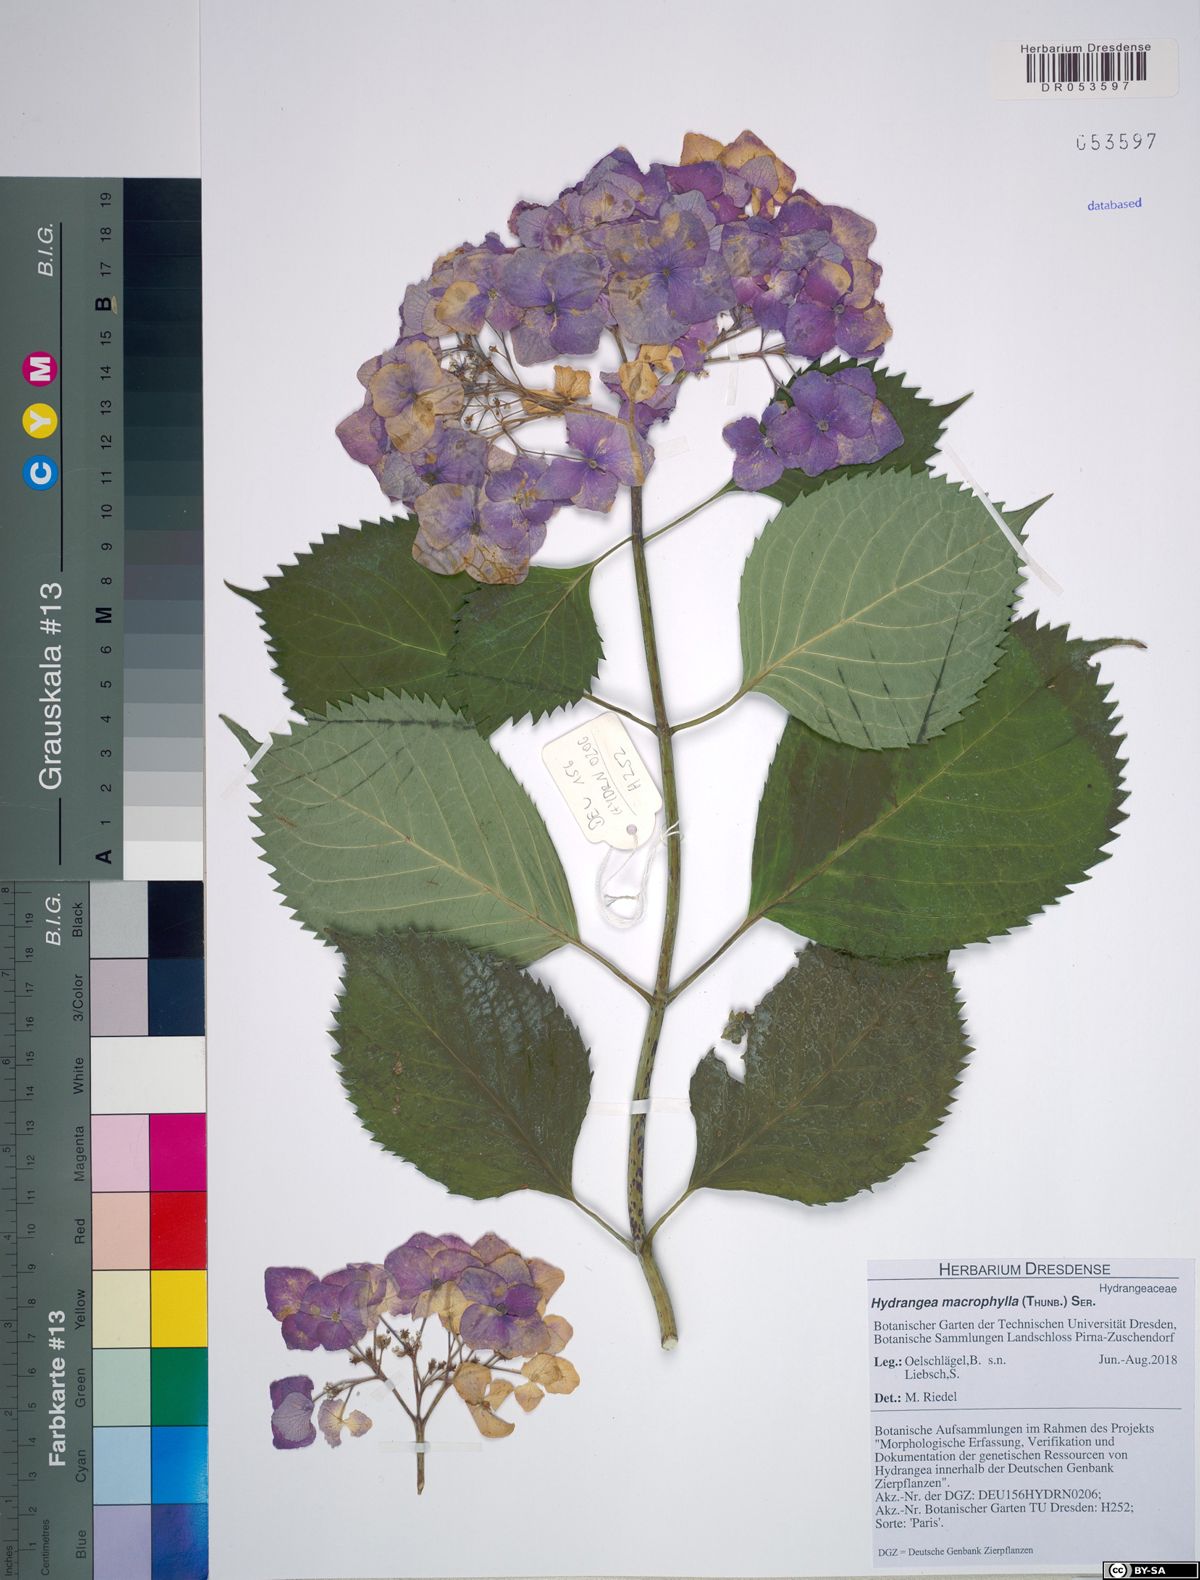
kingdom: Plantae
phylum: Tracheophyta
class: Magnoliopsida
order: Cornales
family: Hydrangeaceae
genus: Hydrangea
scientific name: Hydrangea macrophylla
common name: Hydrangea
